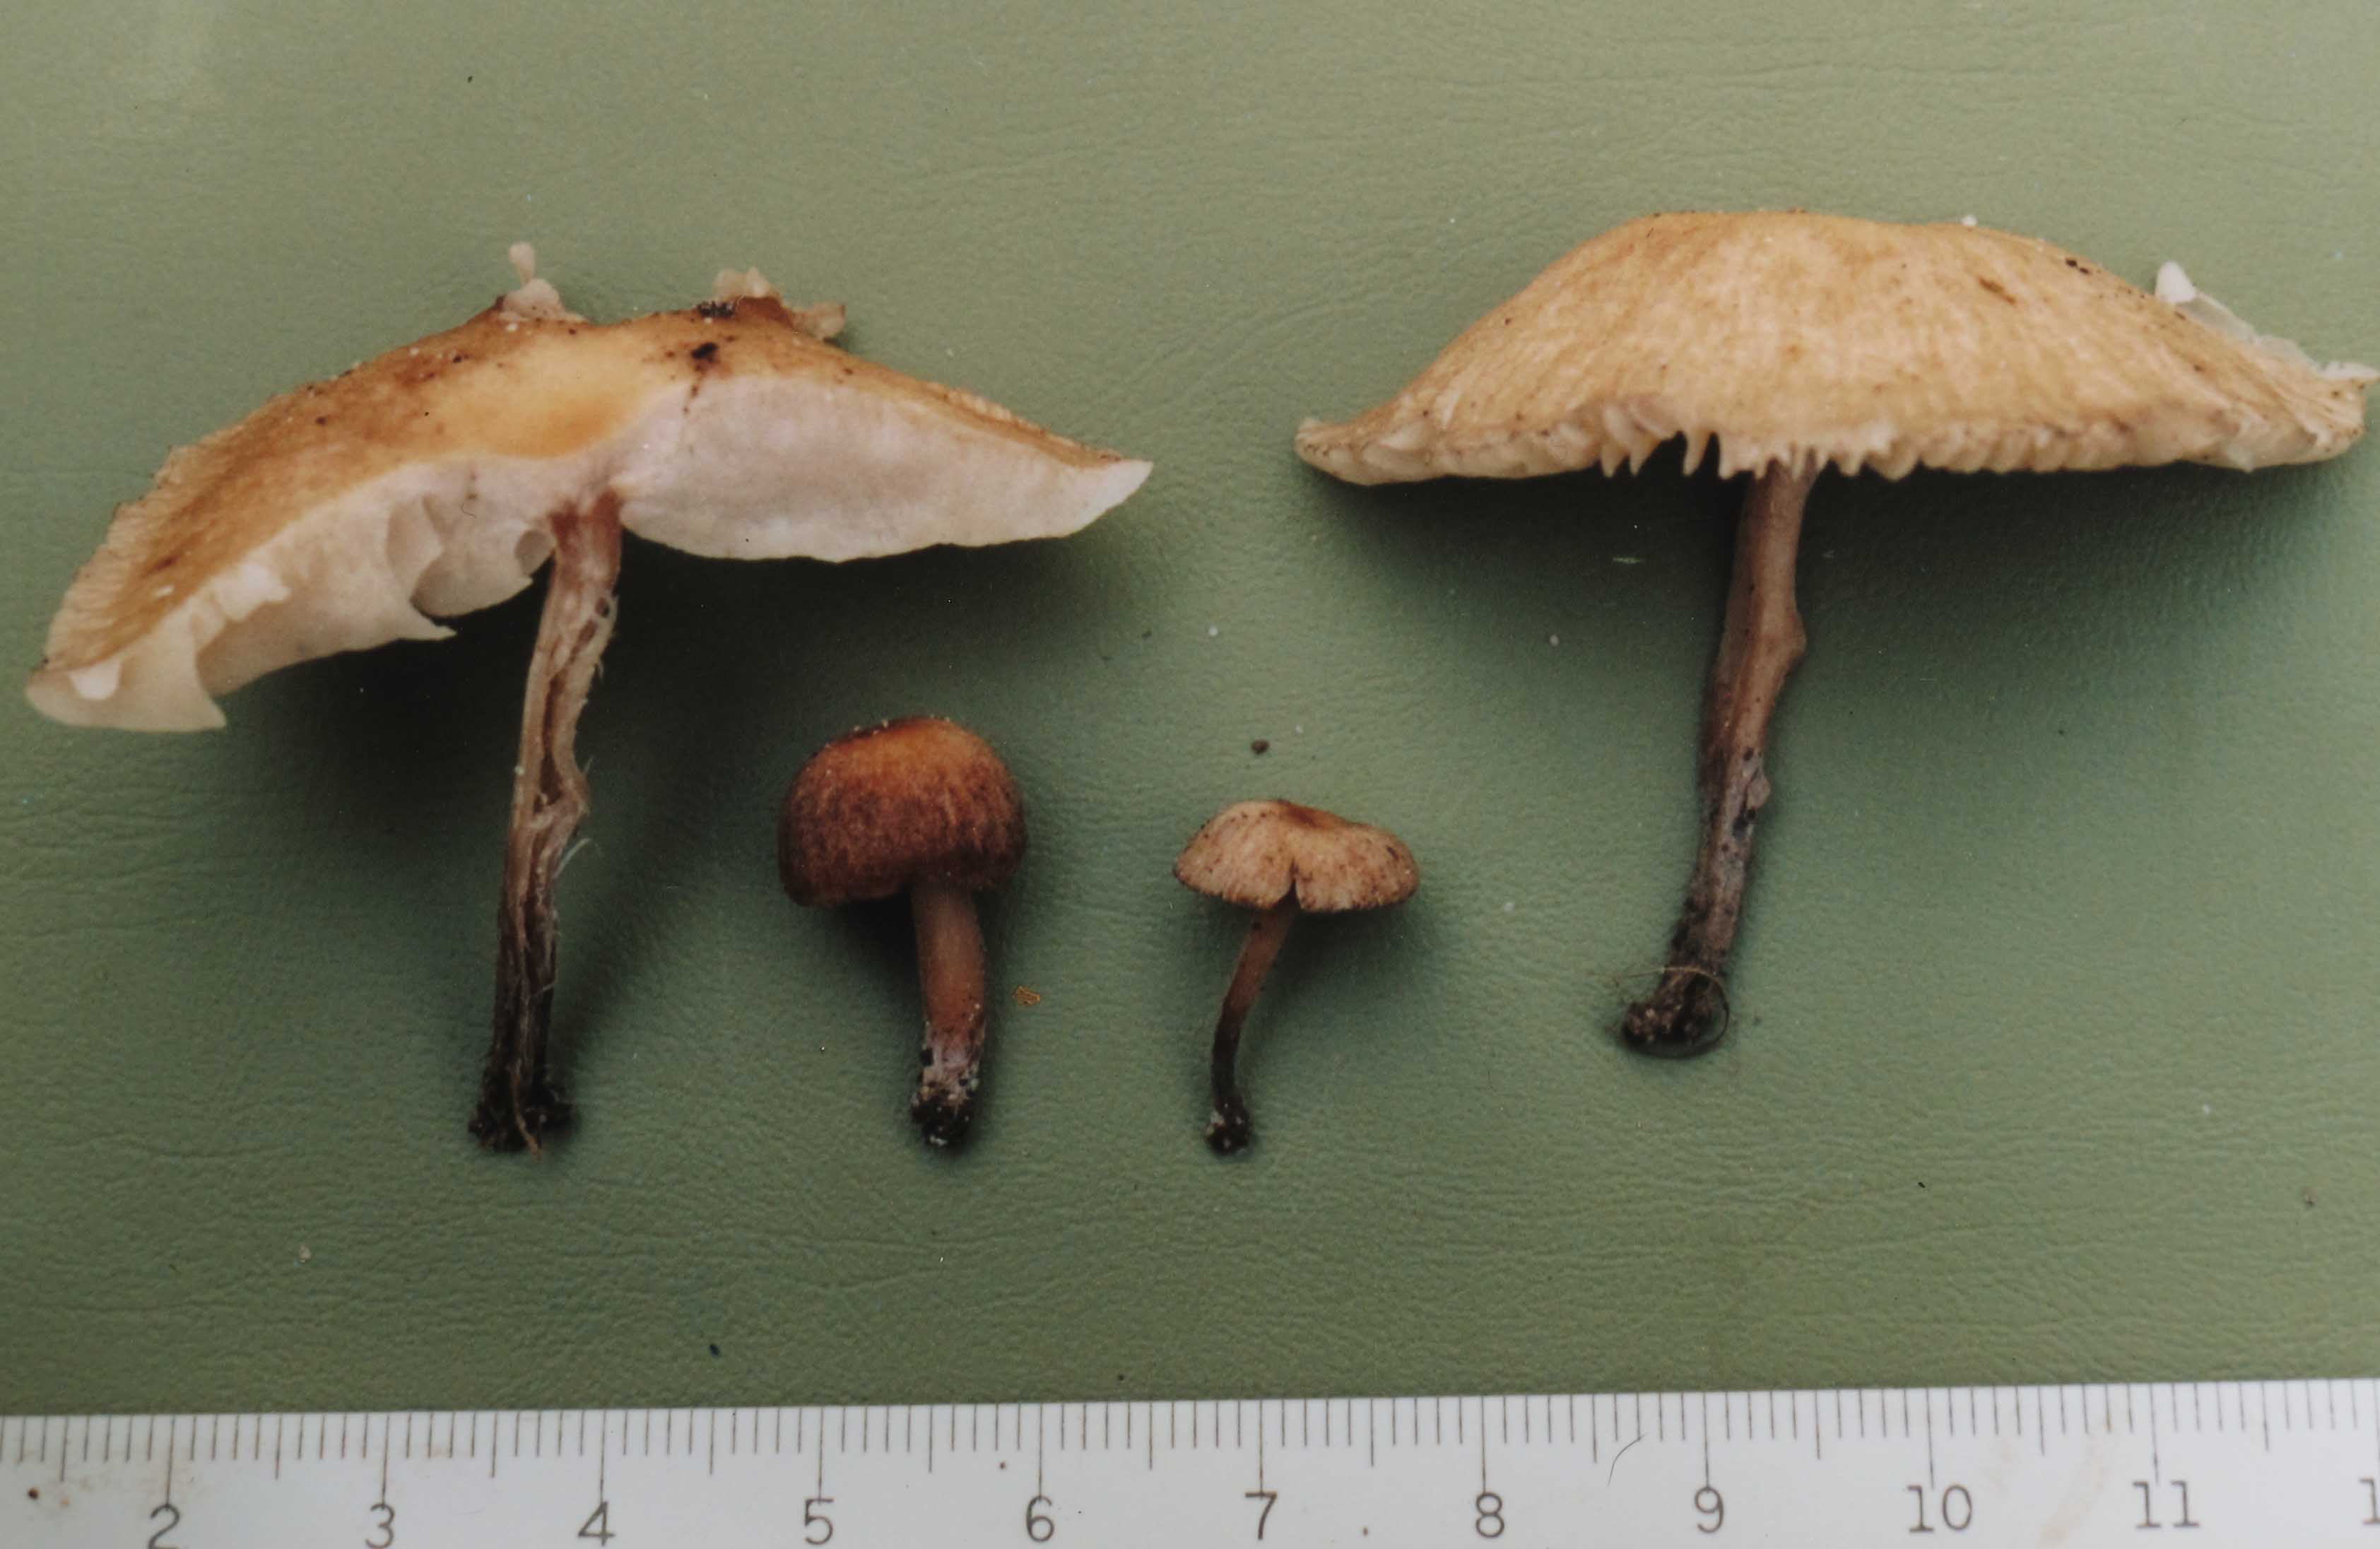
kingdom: Fungi
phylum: Basidiomycota
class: Agaricomycetes
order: Agaricales
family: Omphalotaceae
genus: Gymnopus
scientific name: Gymnopus inodorus
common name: lugtløs fladhat
